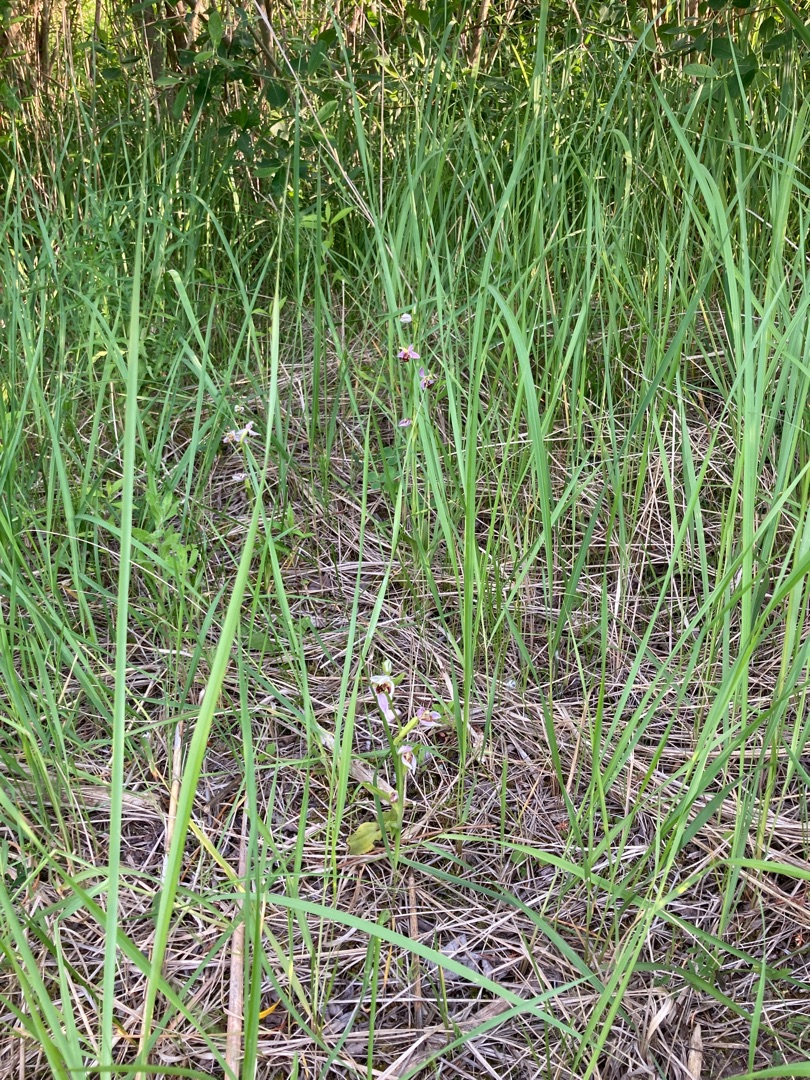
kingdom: Plantae
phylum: Tracheophyta
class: Liliopsida
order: Asparagales
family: Orchidaceae
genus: Ophrys
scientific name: Ophrys apifera
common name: Biblomst
